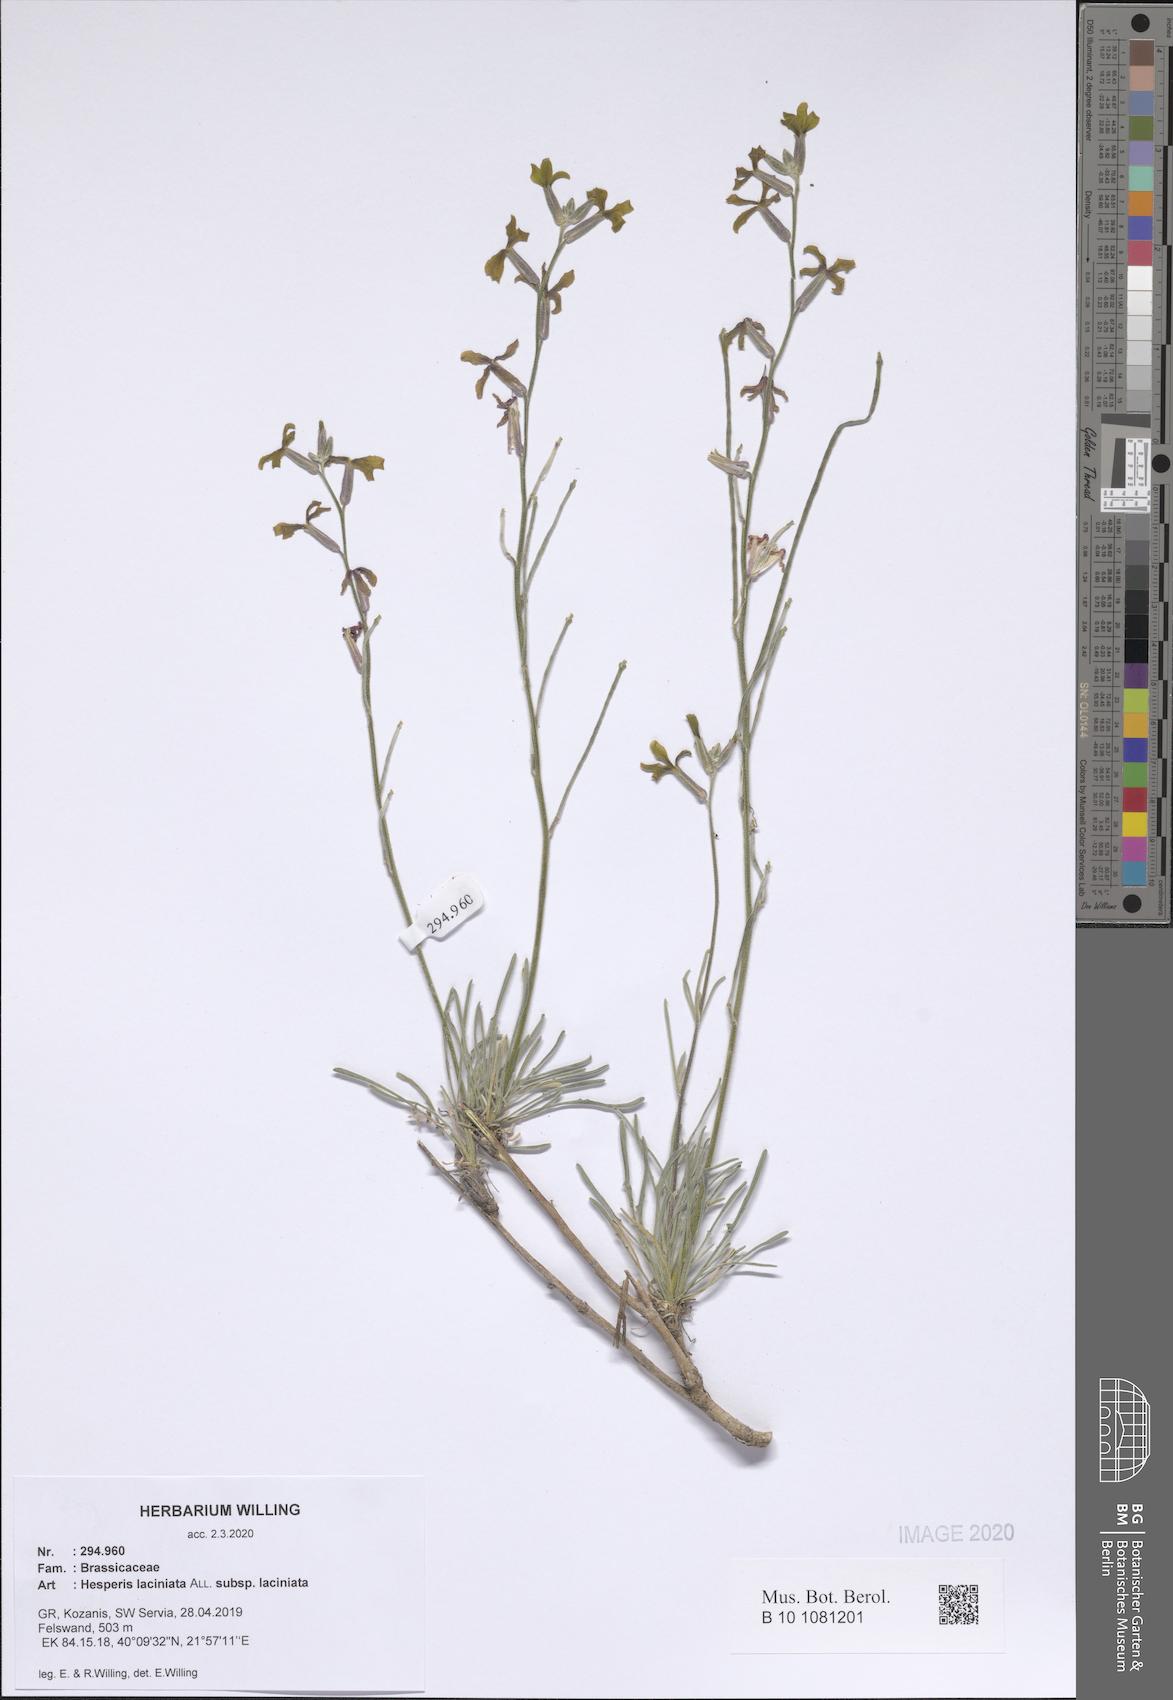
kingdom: Plantae
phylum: Tracheophyta
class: Magnoliopsida
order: Brassicales
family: Brassicaceae
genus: Hesperis
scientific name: Hesperis laciniata
